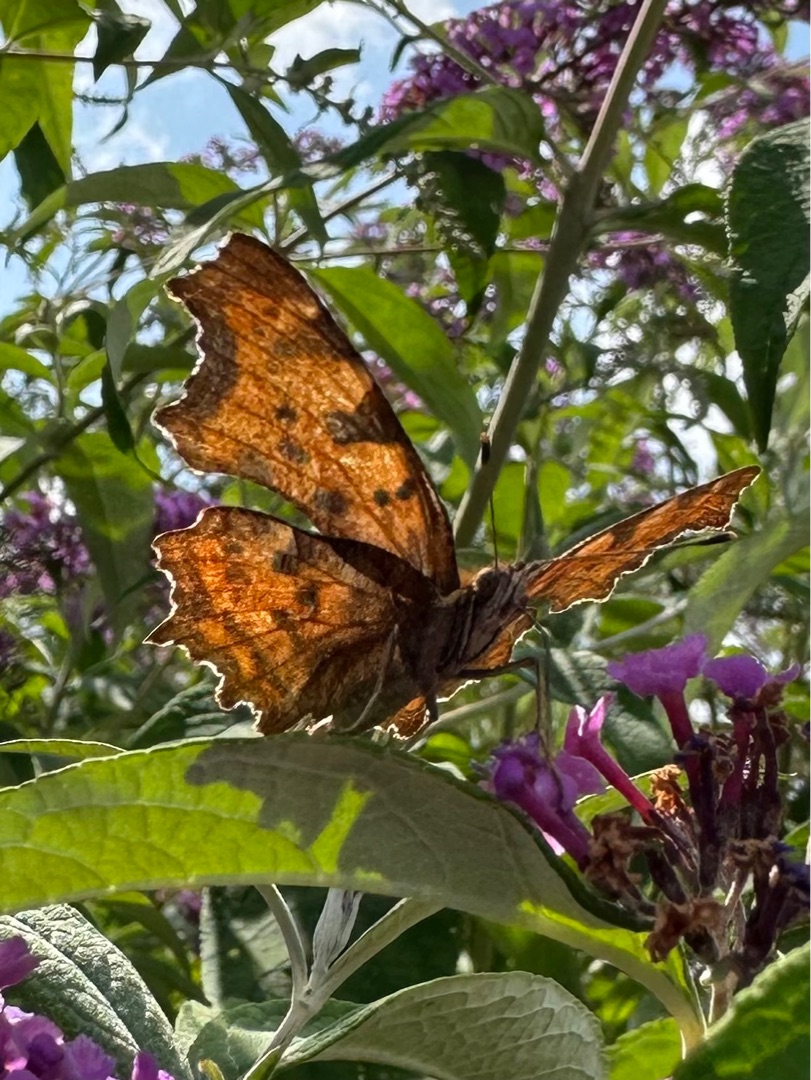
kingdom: Animalia
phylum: Arthropoda
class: Insecta
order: Lepidoptera
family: Nymphalidae
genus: Polygonia
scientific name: Polygonia c-album
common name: Det hvide C
